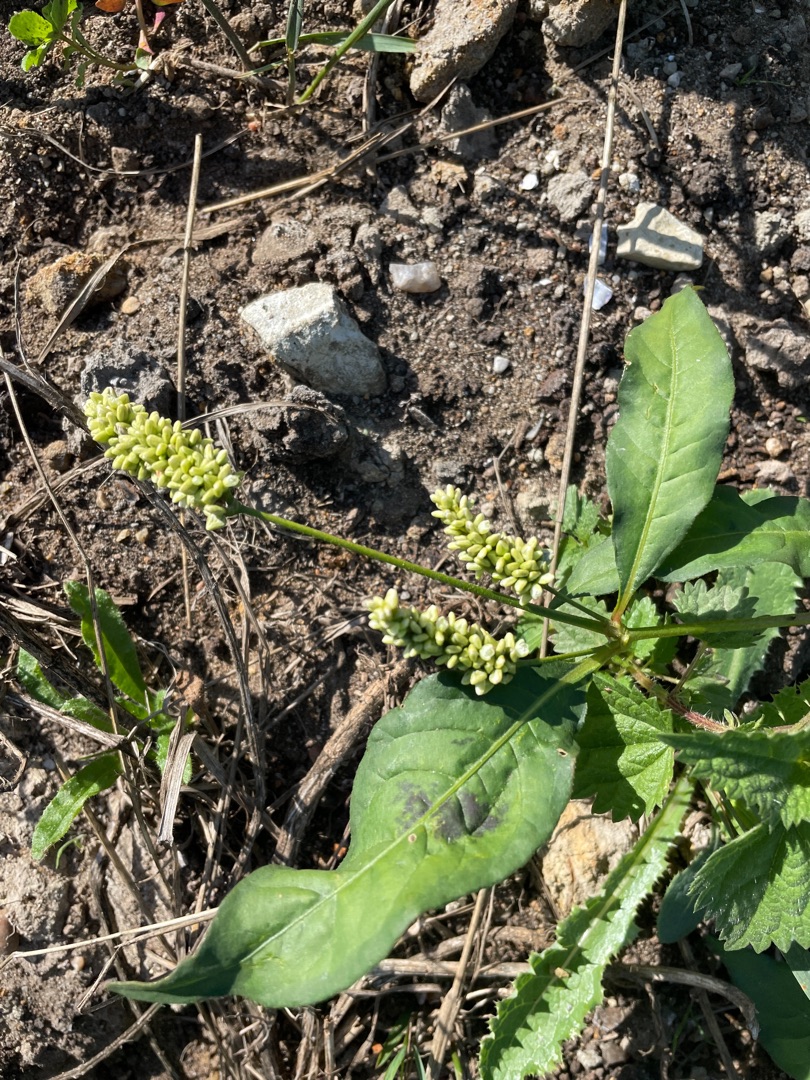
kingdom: Plantae
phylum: Tracheophyta
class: Magnoliopsida
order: Caryophyllales
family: Polygonaceae
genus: Persicaria
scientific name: Persicaria lapathifolia
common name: Bleg pileurt
